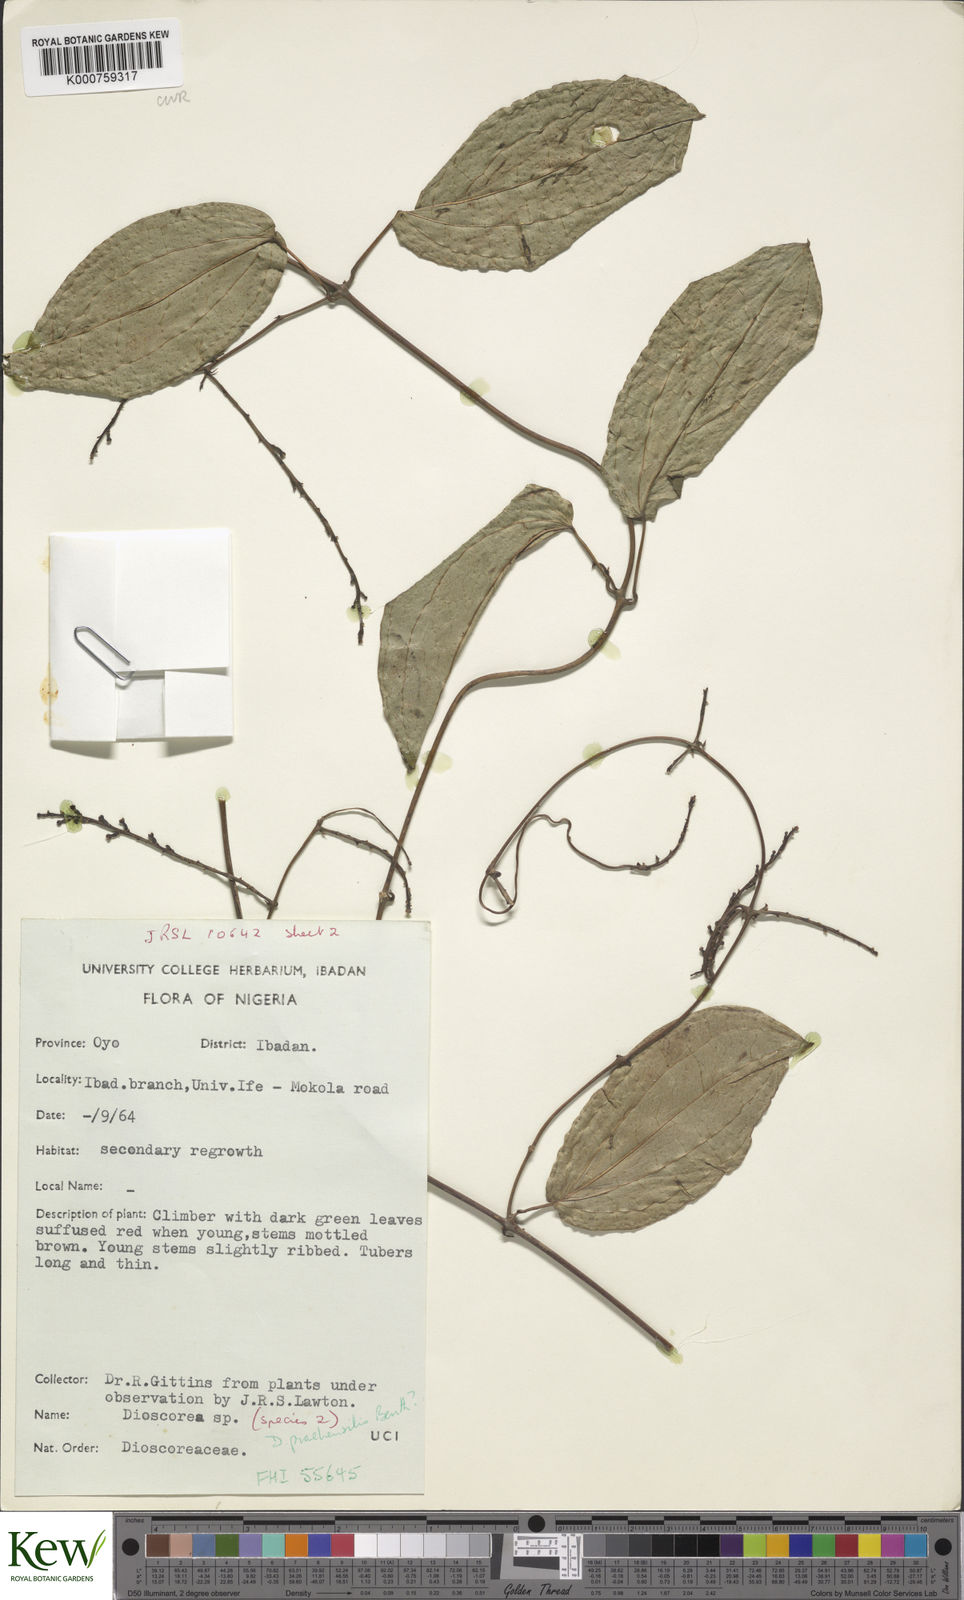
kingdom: Plantae
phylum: Tracheophyta
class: Liliopsida
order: Dioscoreales
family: Dioscoreaceae
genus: Dioscorea
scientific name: Dioscorea praehensilis
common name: Bush yam
